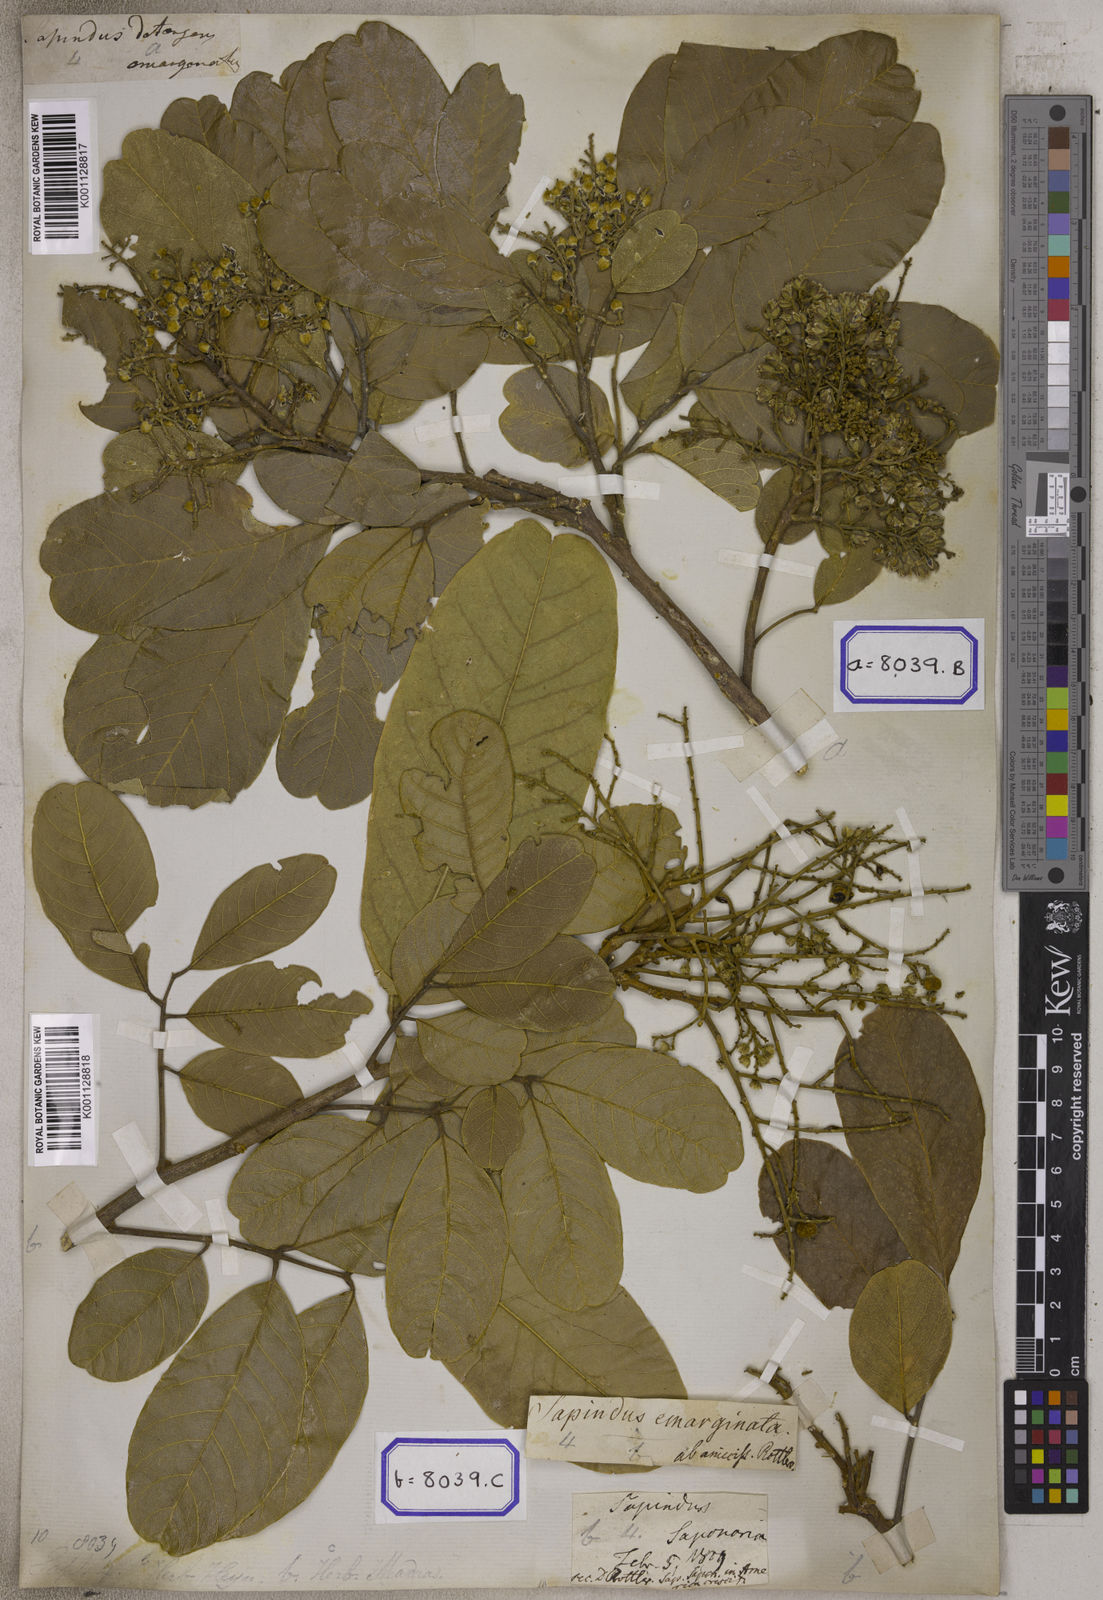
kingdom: Plantae
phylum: Tracheophyta
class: Magnoliopsida
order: Sapindales
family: Sapindaceae
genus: Sapindus
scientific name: Sapindus emarginatus
